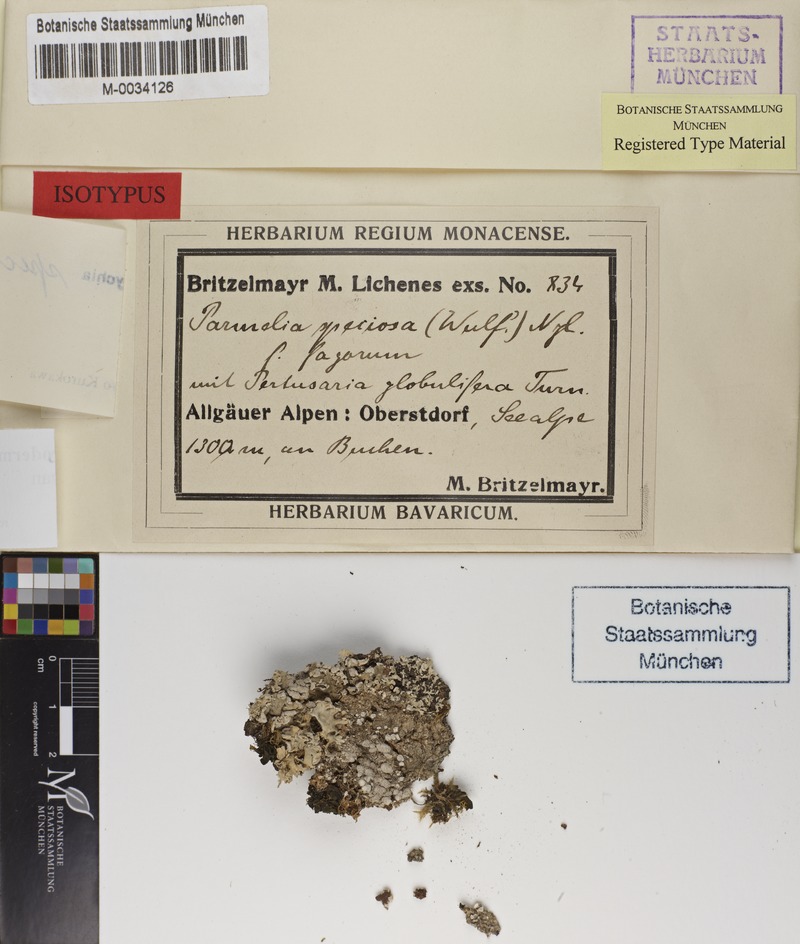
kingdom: Fungi
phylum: Ascomycota
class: Lecanoromycetes
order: Caliciales
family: Physciaceae
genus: Heterodermia
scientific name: Heterodermia speciosa
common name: Powdered fringe lichen
